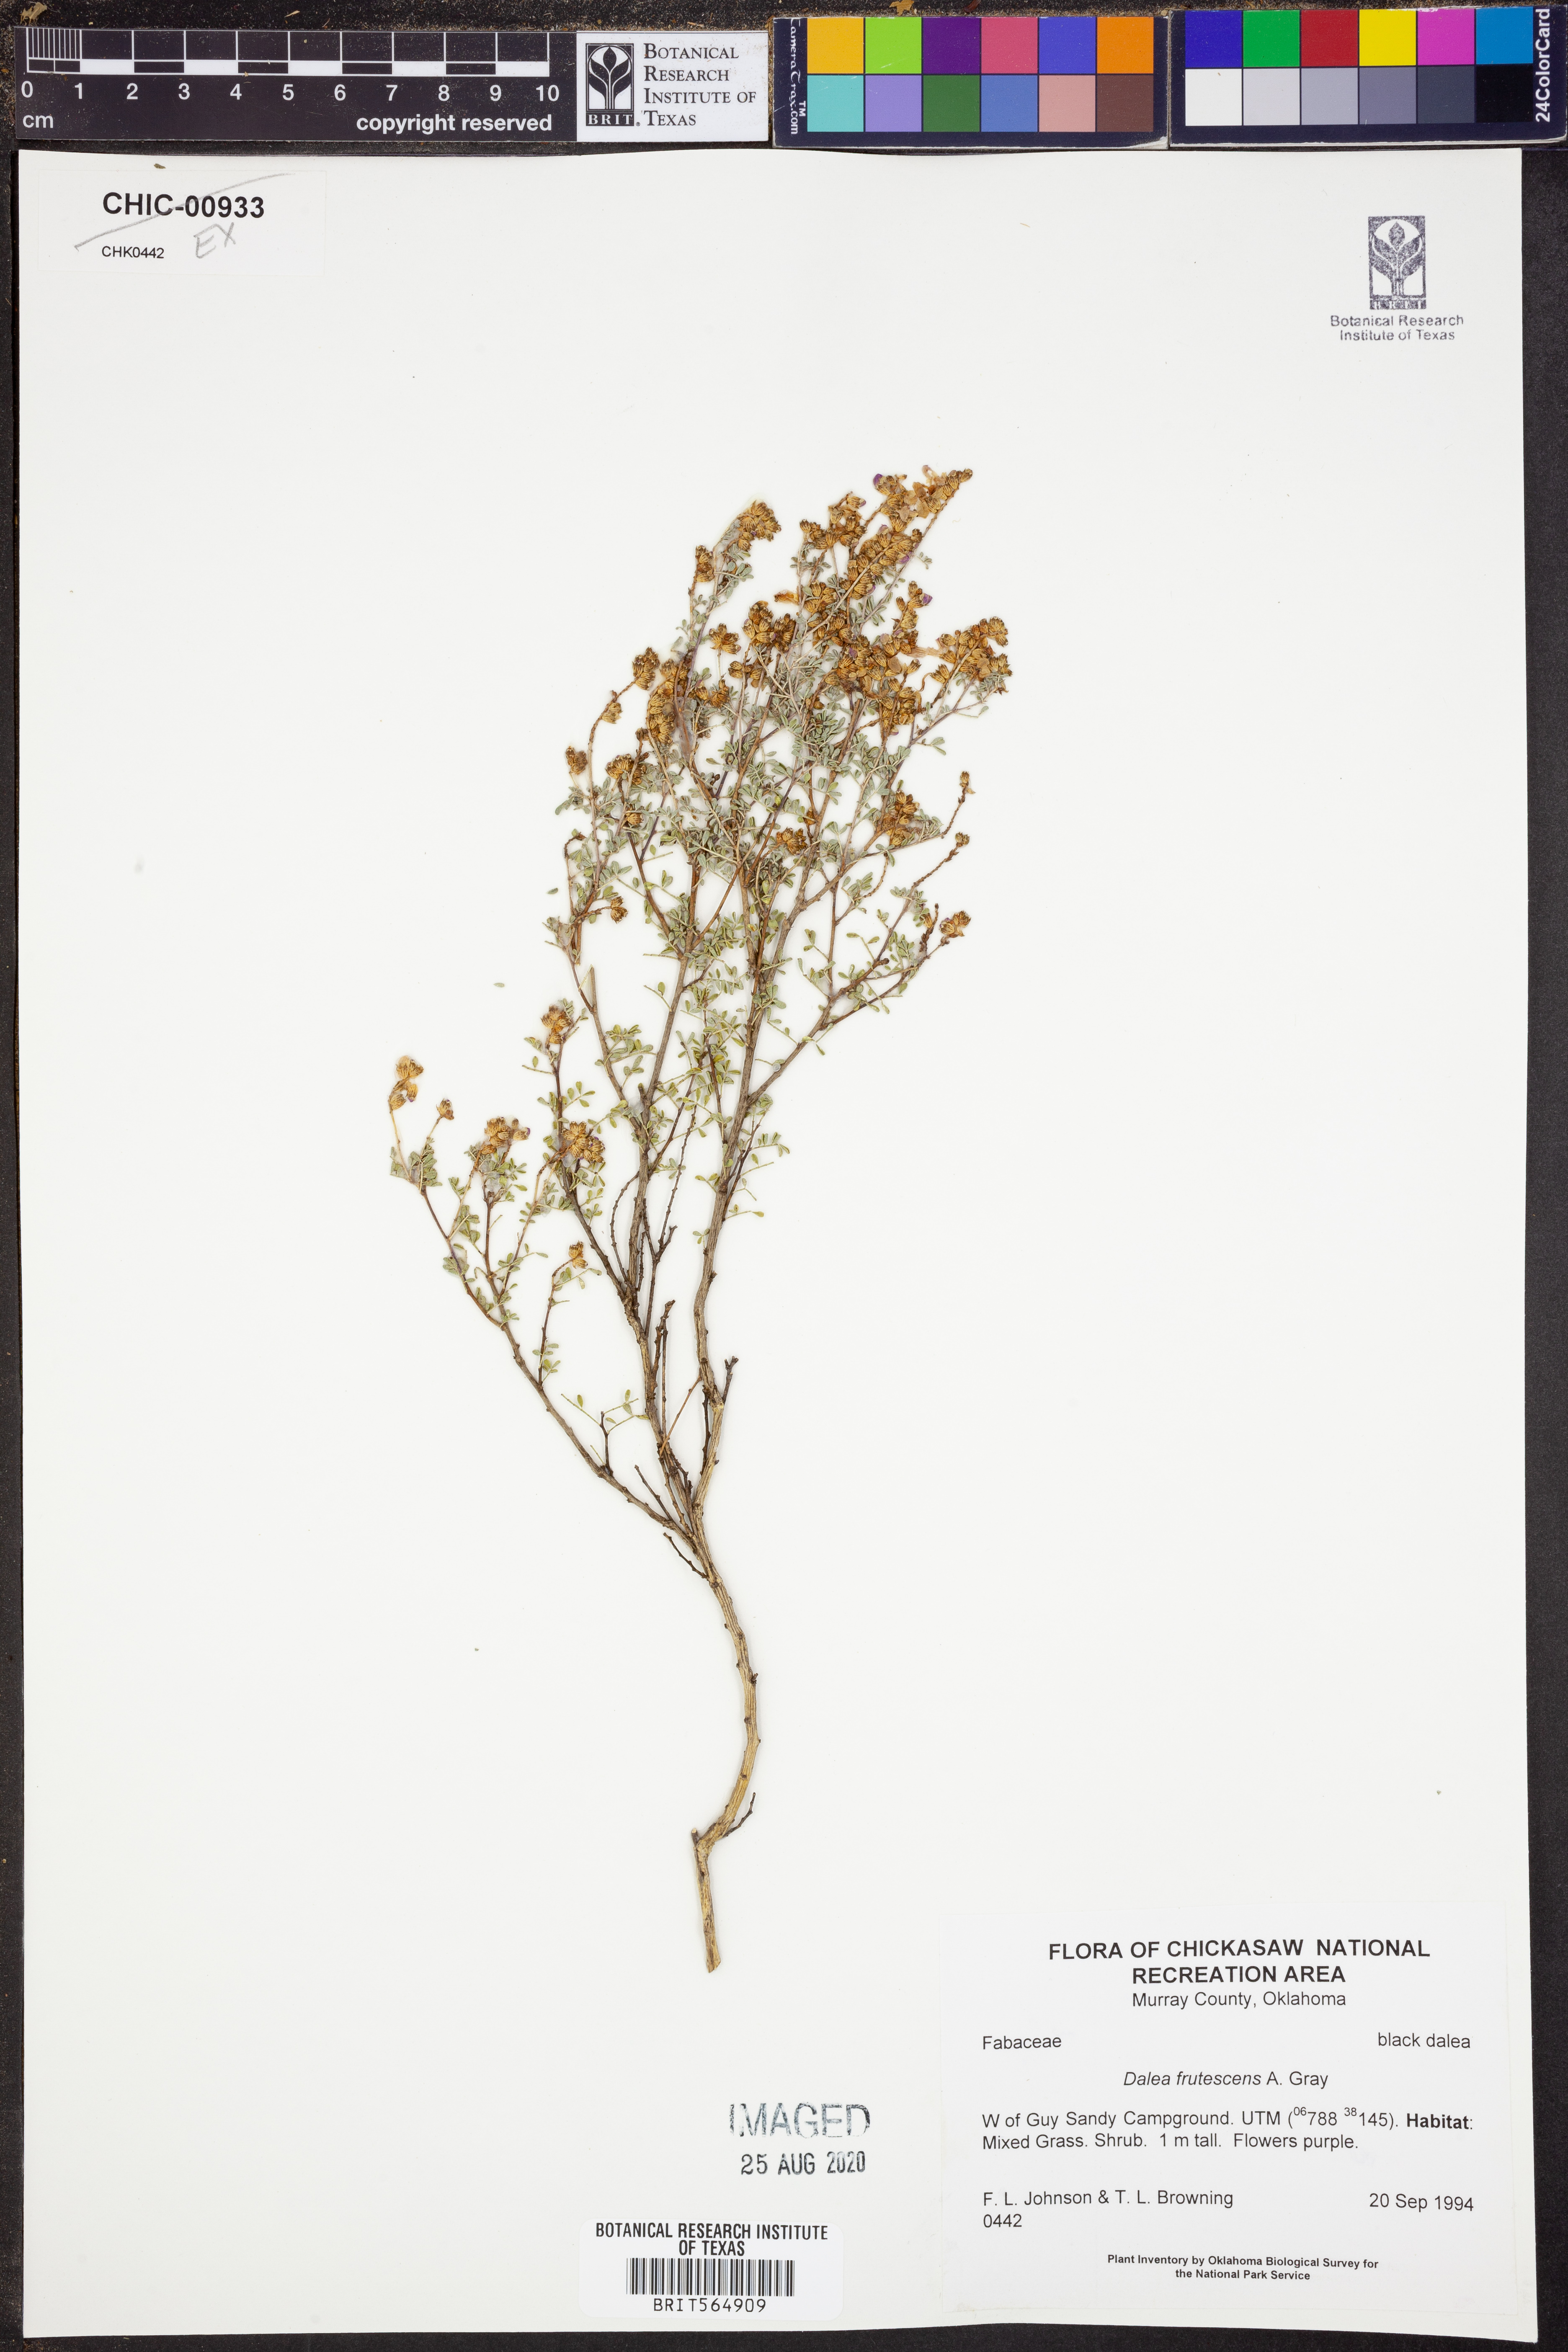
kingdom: Plantae
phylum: Tracheophyta
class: Magnoliopsida
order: Fabales
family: Fabaceae
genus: Dalea
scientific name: Dalea frutescens
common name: Black dalea
